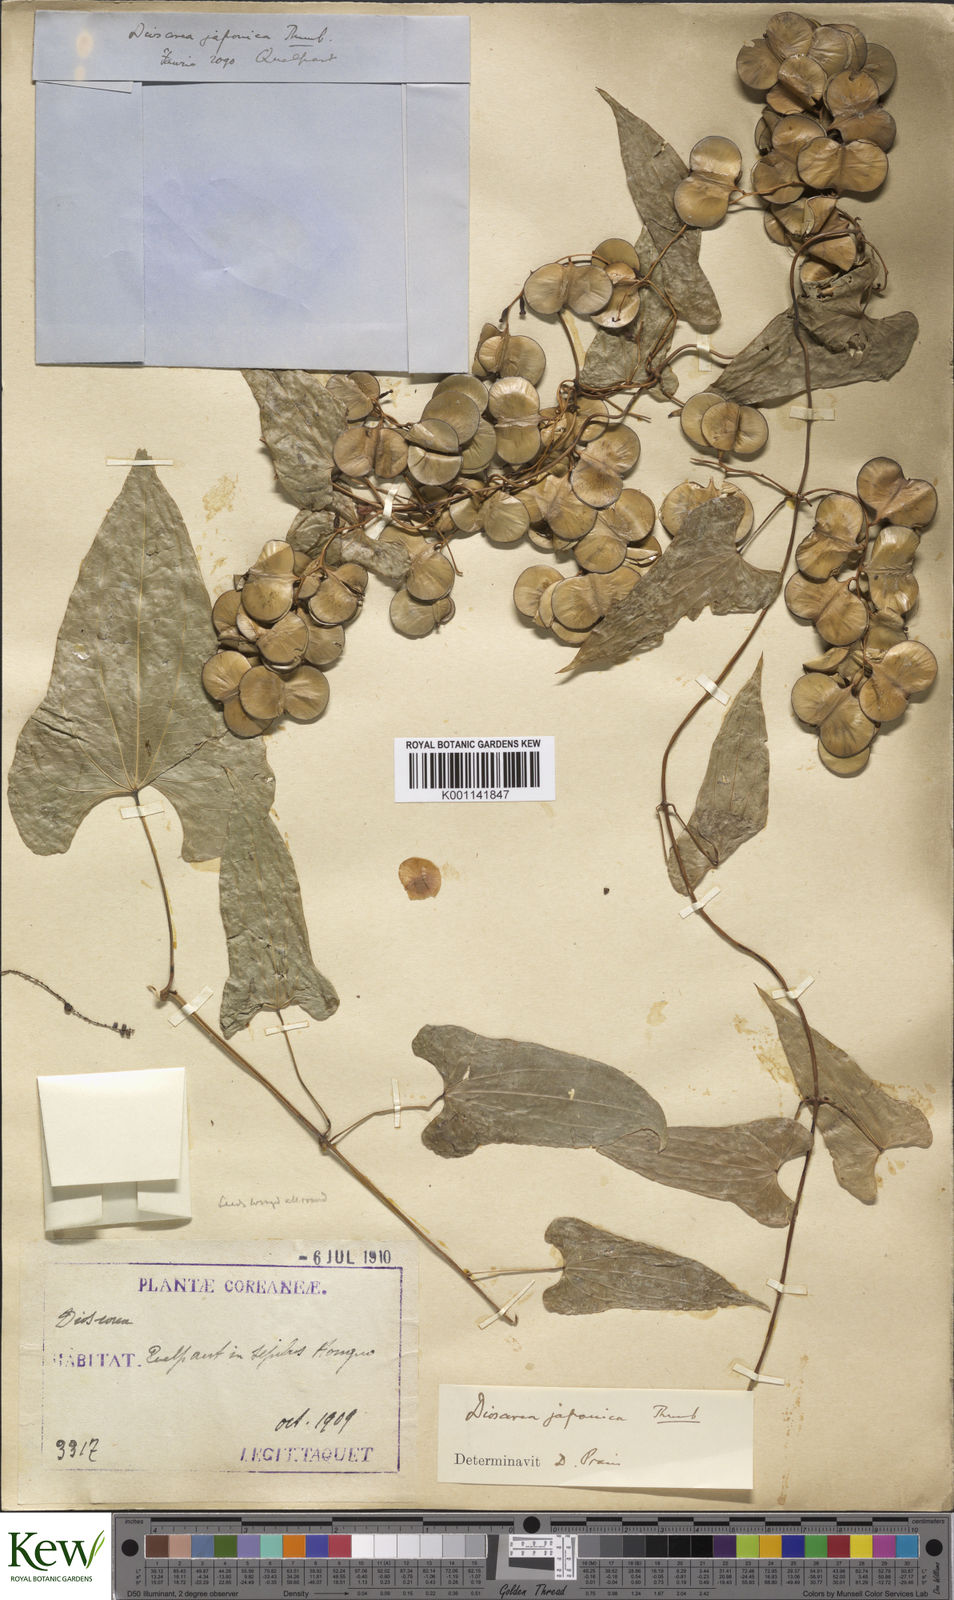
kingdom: Plantae
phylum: Tracheophyta
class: Liliopsida
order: Dioscoreales
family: Dioscoreaceae
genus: Dioscorea
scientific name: Dioscorea japonica
